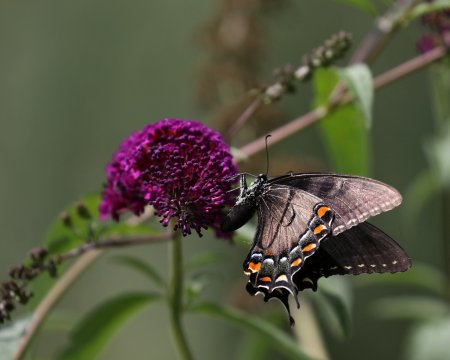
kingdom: Animalia
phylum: Arthropoda
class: Insecta
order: Lepidoptera
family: Papilionidae
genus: Pterourus
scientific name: Pterourus glaucus
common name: Eastern Tiger Swallowtail
